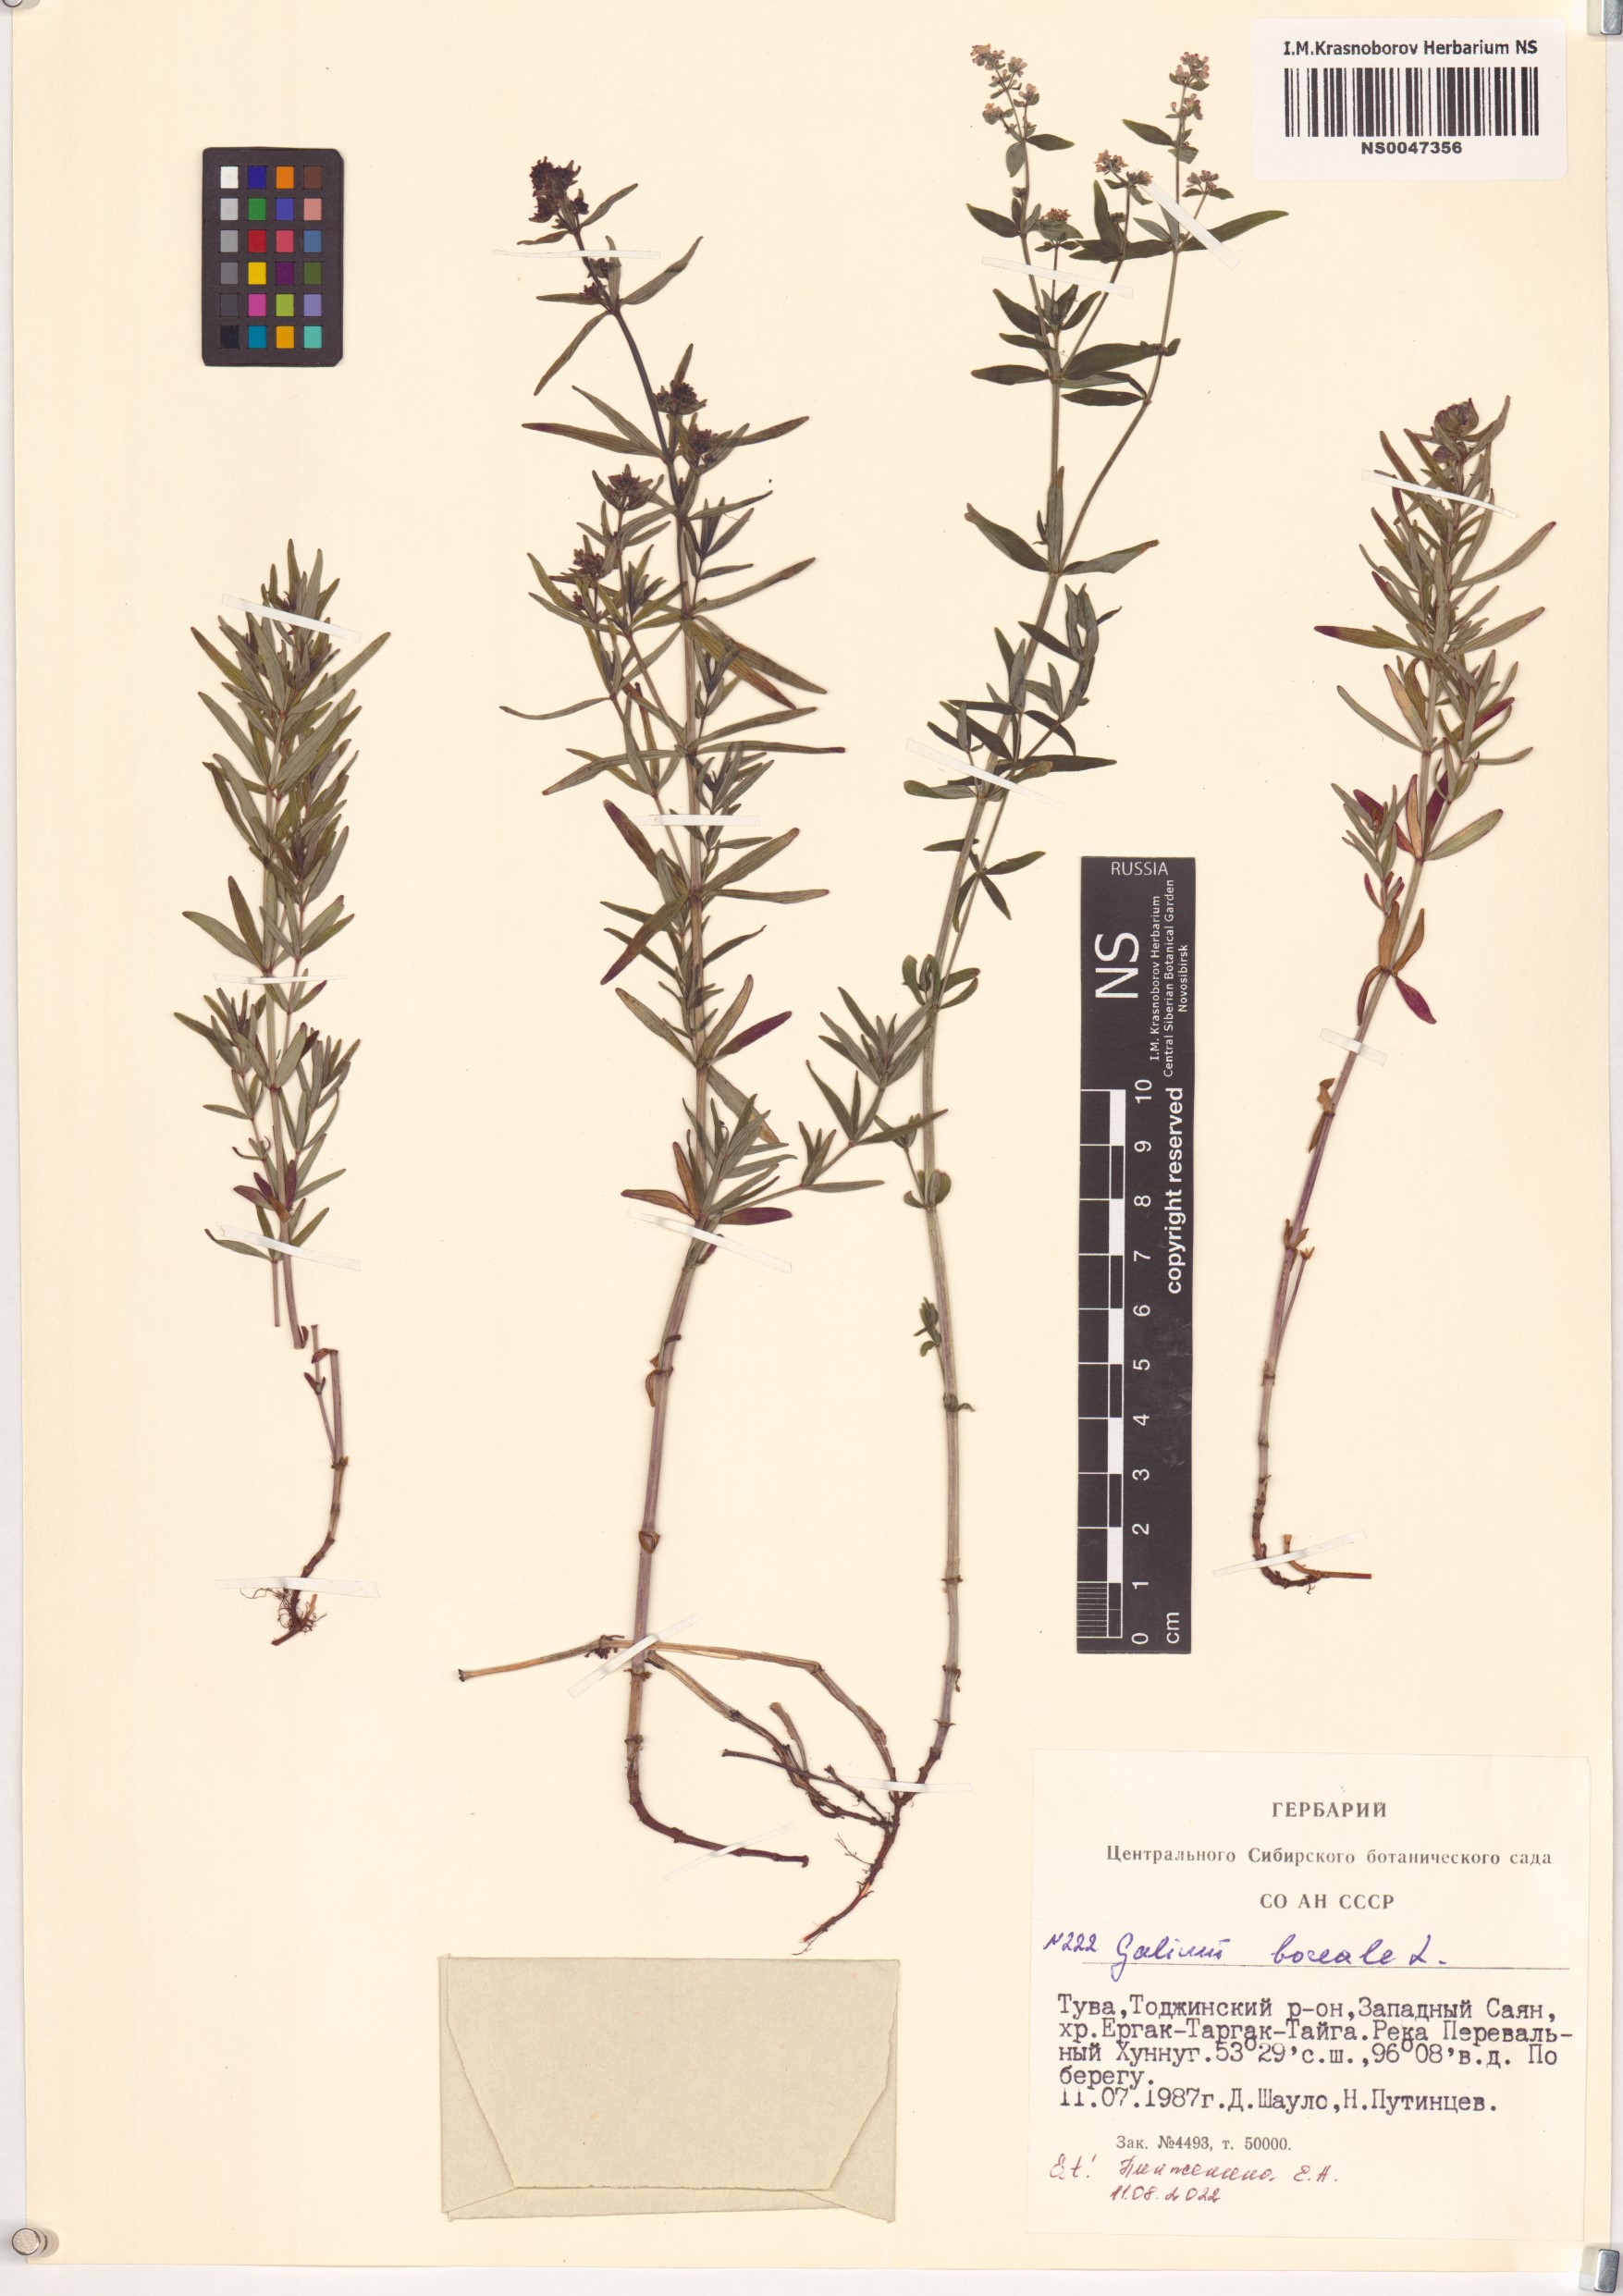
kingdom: Plantae
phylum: Tracheophyta
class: Magnoliopsida
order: Gentianales
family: Rubiaceae
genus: Galium
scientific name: Galium boreale
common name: Northern bedstraw
